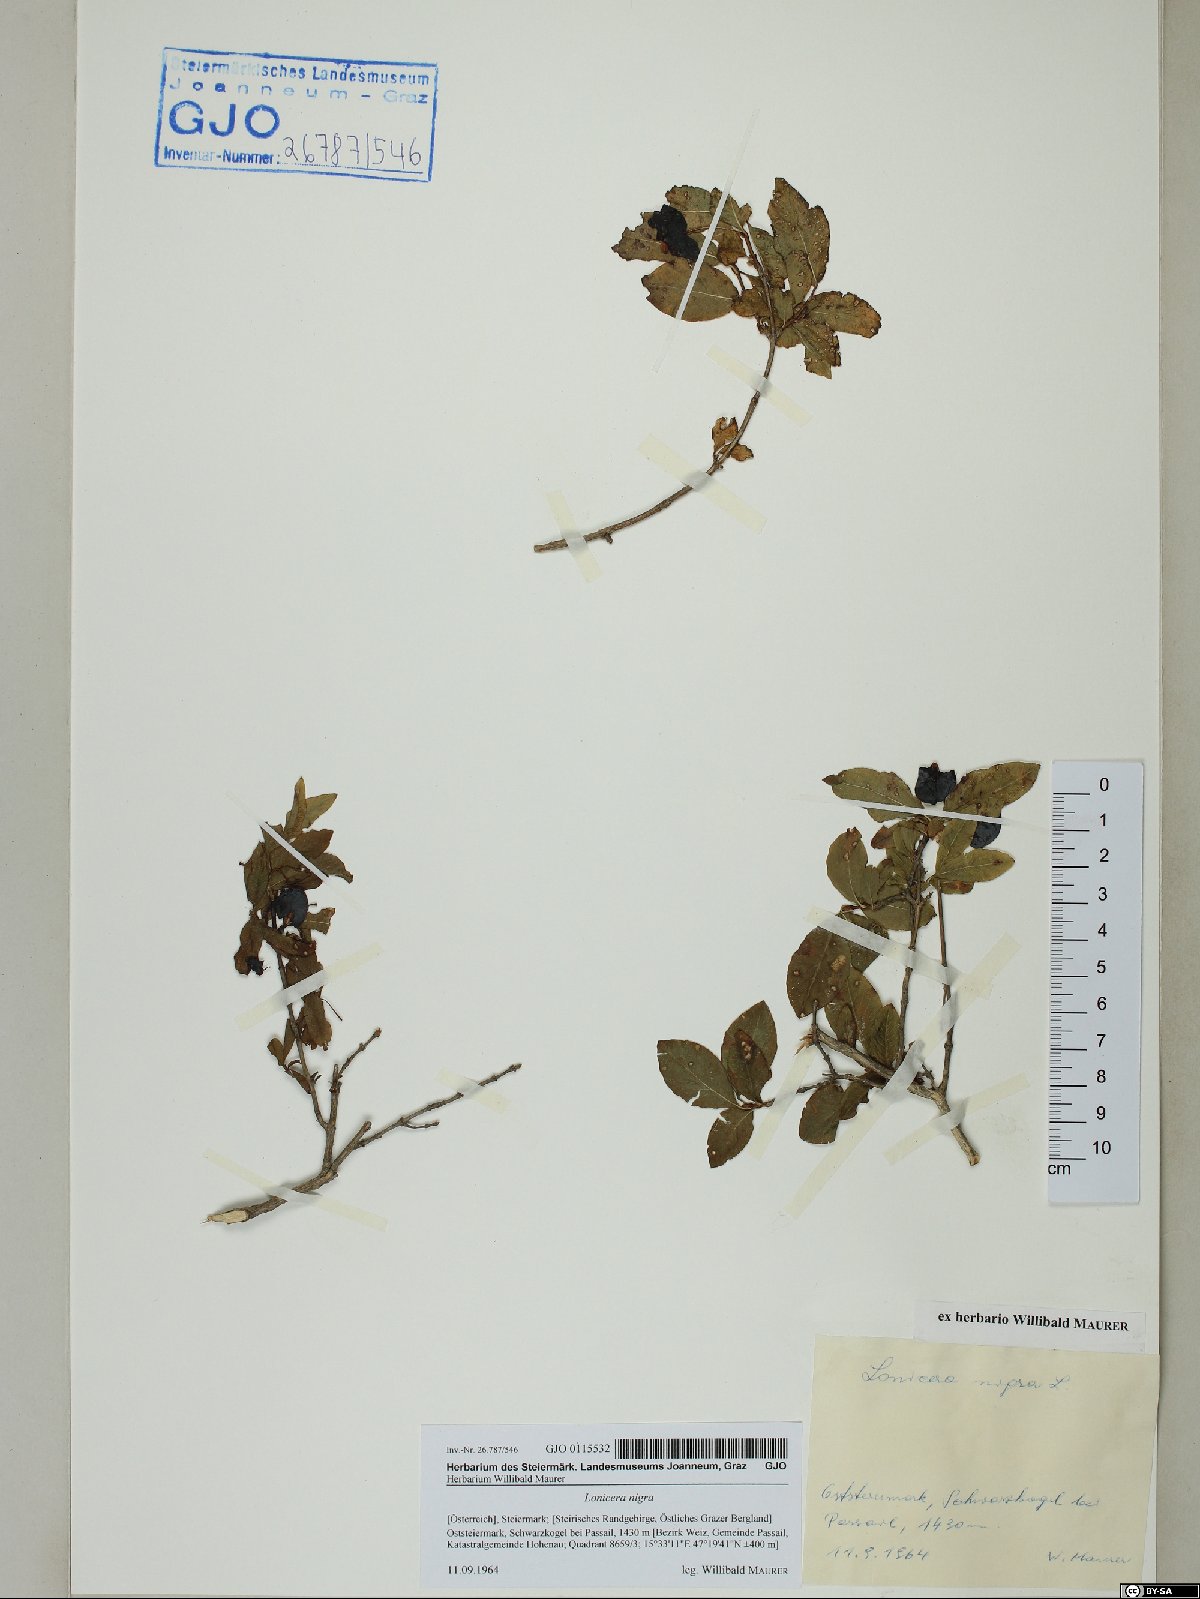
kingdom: Plantae
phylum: Tracheophyta
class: Magnoliopsida
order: Dipsacales
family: Caprifoliaceae
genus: Lonicera
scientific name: Lonicera nigra
